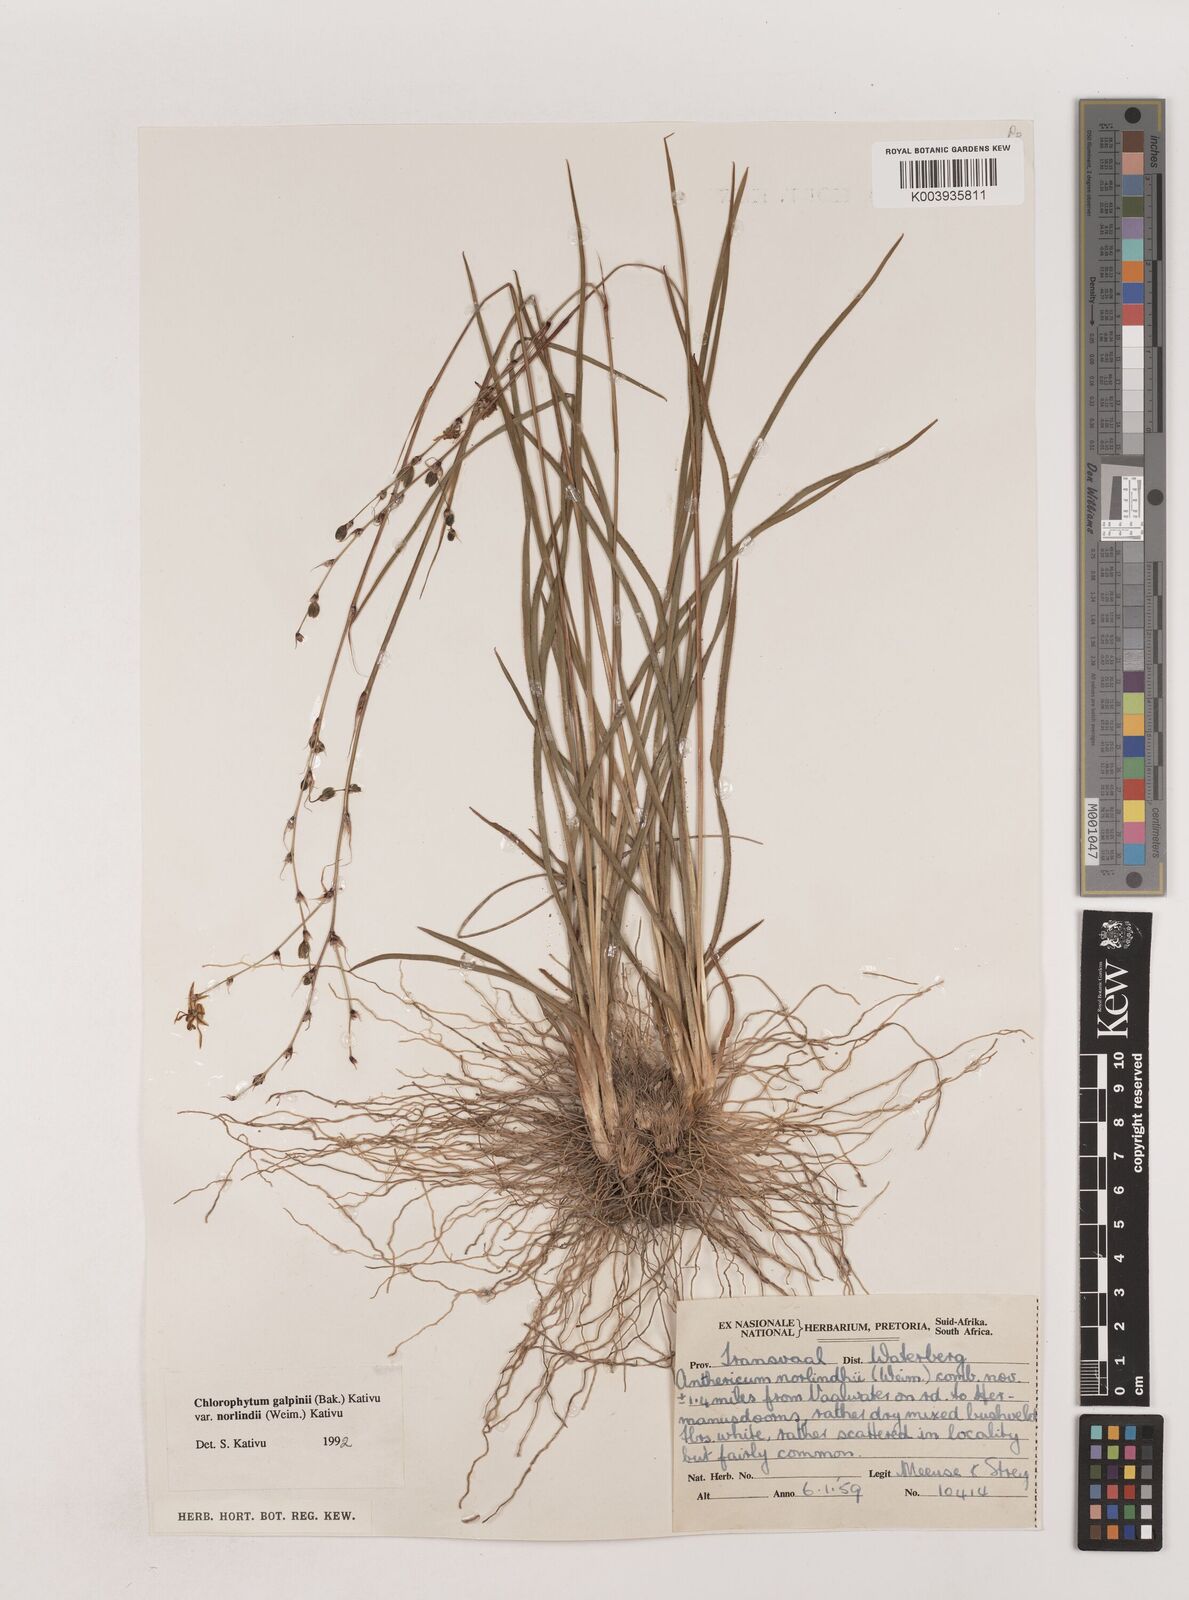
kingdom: Plantae
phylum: Tracheophyta
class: Liliopsida
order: Asparagales
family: Asparagaceae
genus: Chlorophytum
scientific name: Chlorophytum galpinii
